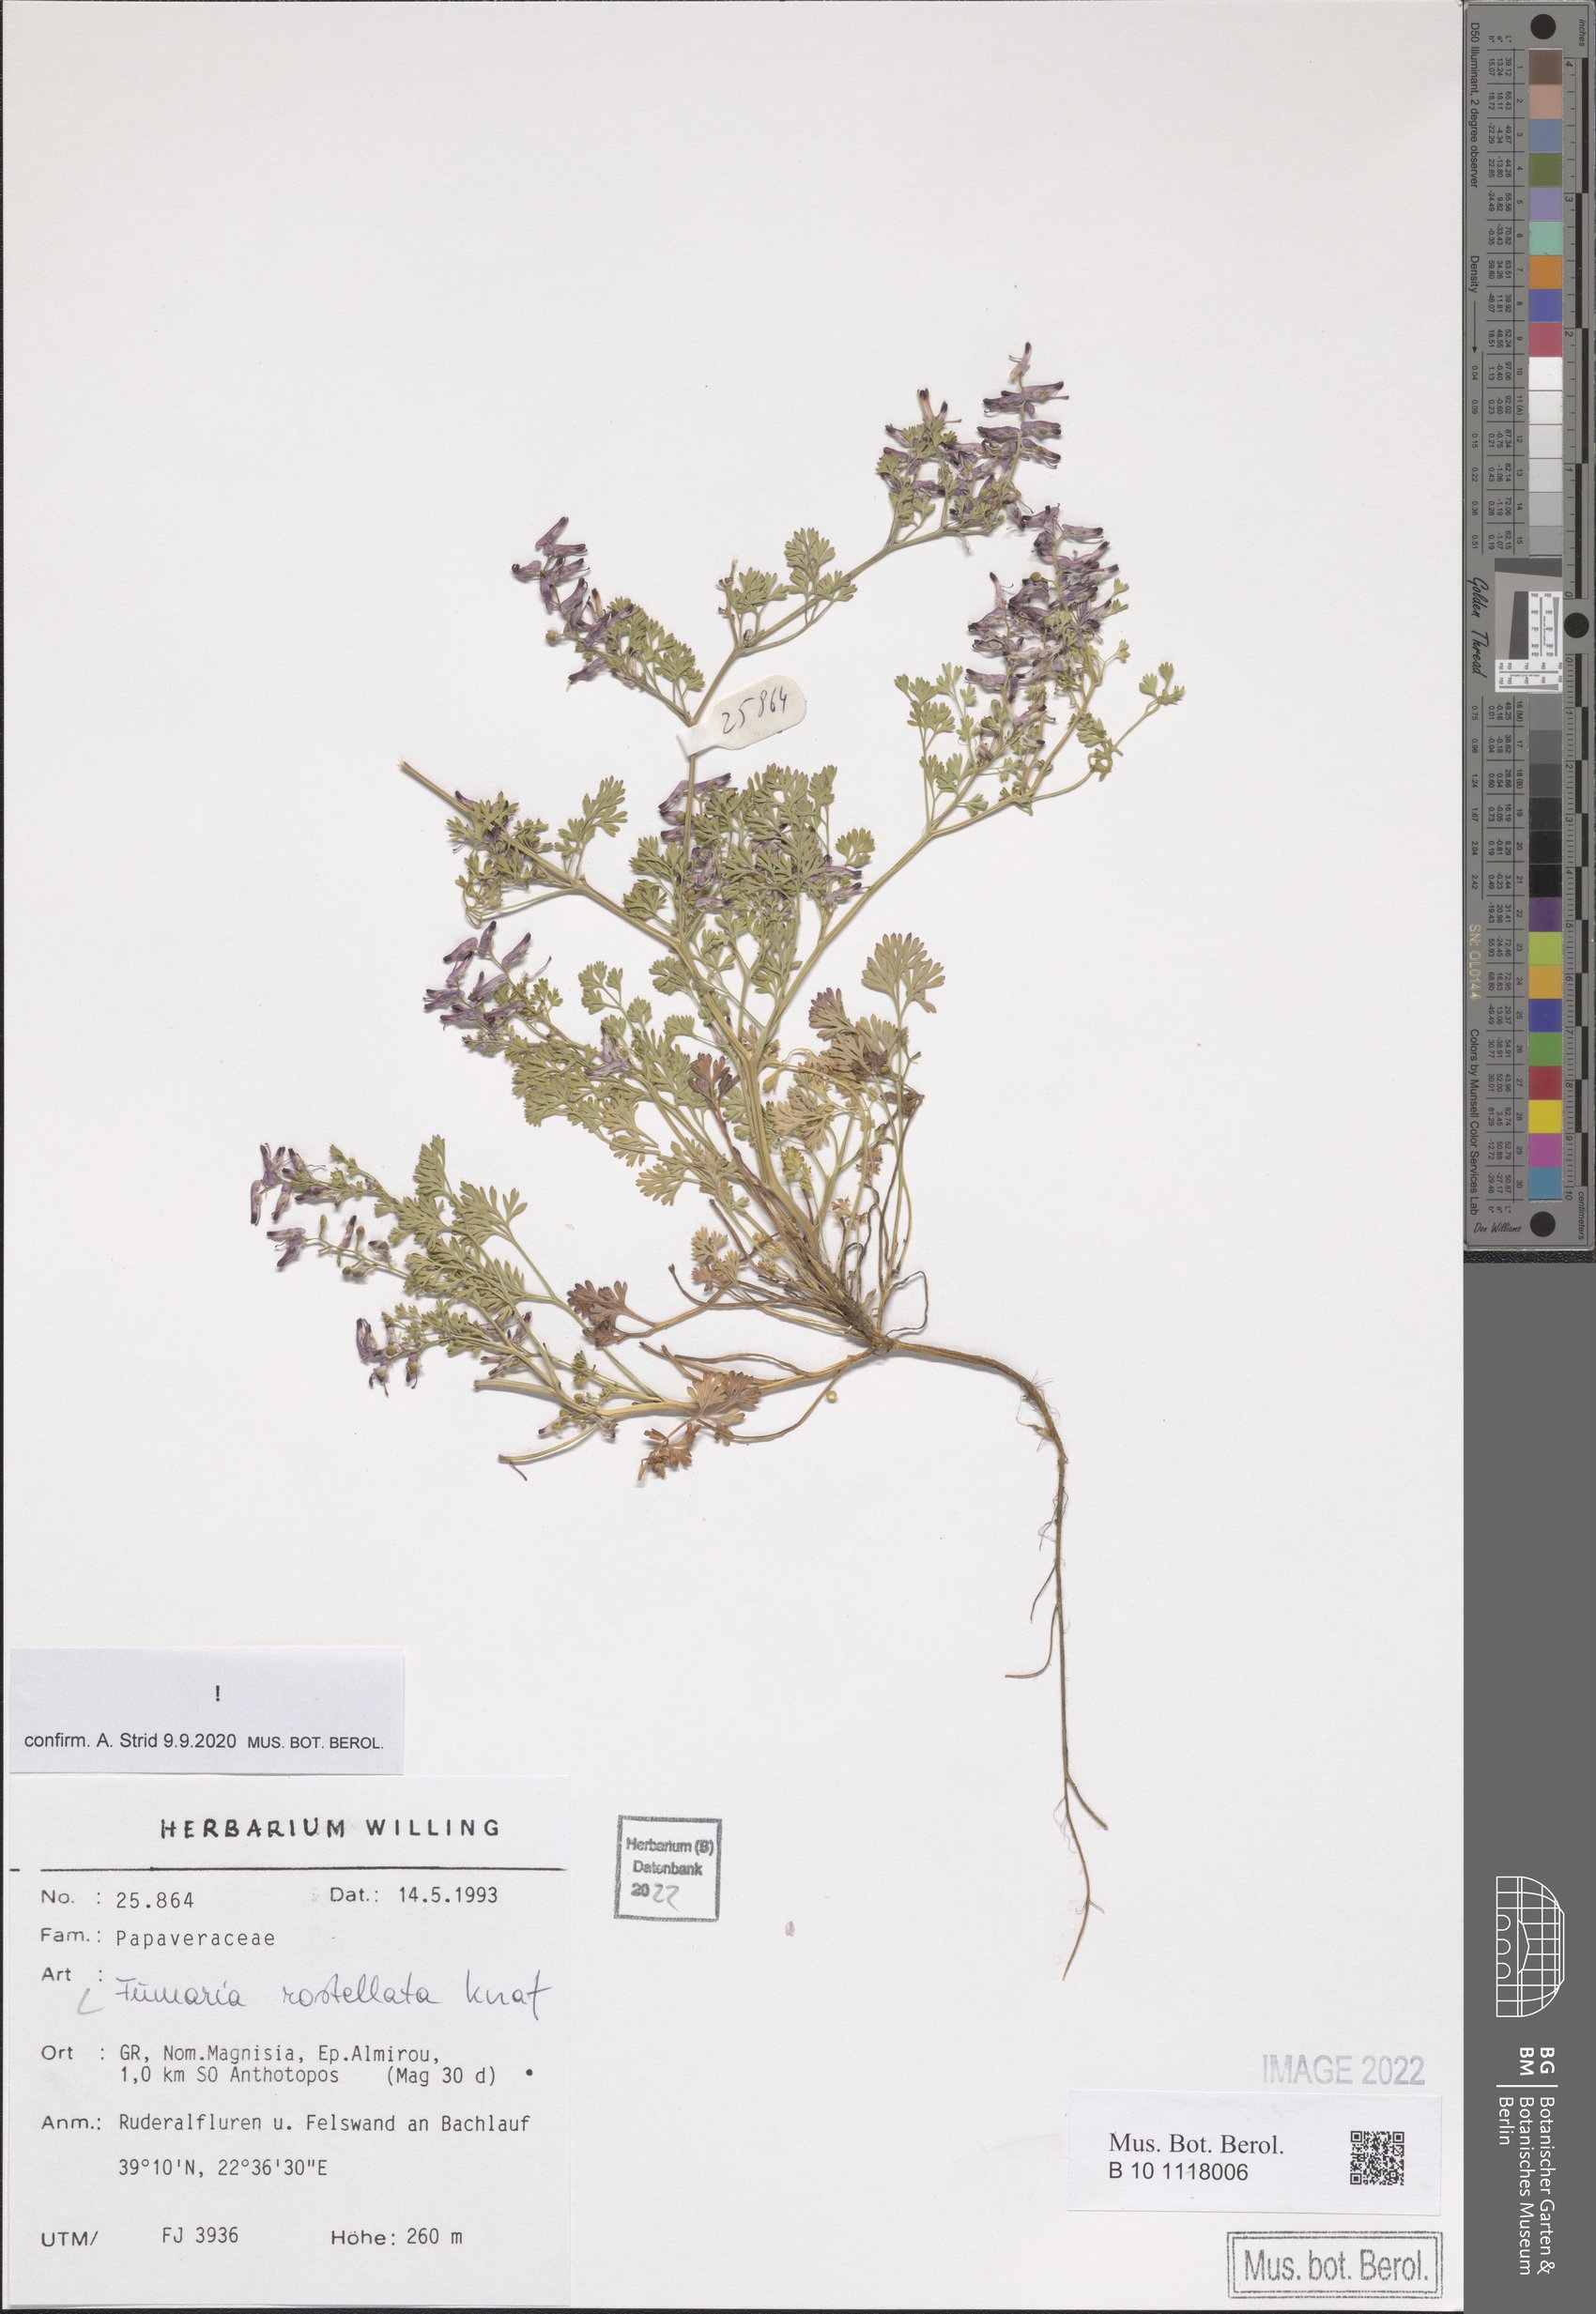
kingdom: Plantae
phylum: Tracheophyta
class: Magnoliopsida
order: Ranunculales
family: Papaveraceae
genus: Fumaria
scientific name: Fumaria rostellata
